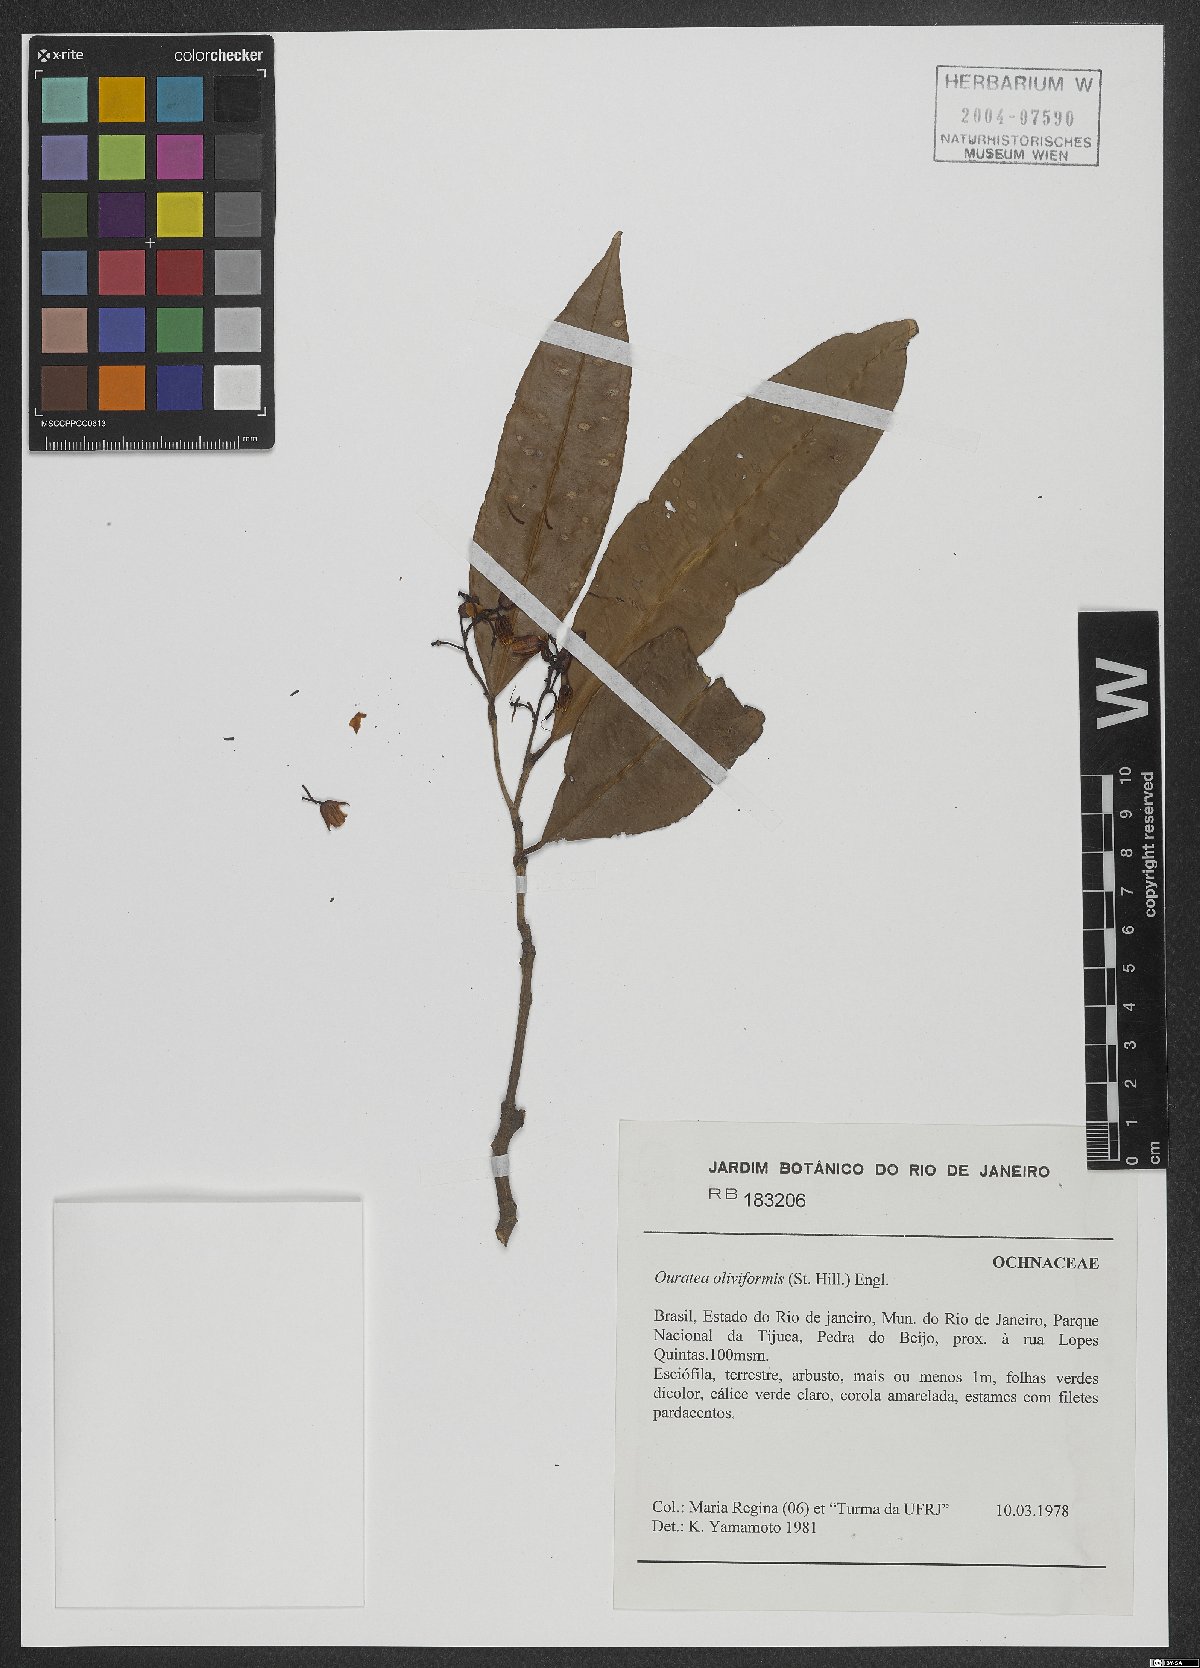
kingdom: Plantae
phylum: Tracheophyta
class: Magnoliopsida
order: Malpighiales
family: Ochnaceae
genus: Ouratea
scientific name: Ouratea oliviformis
